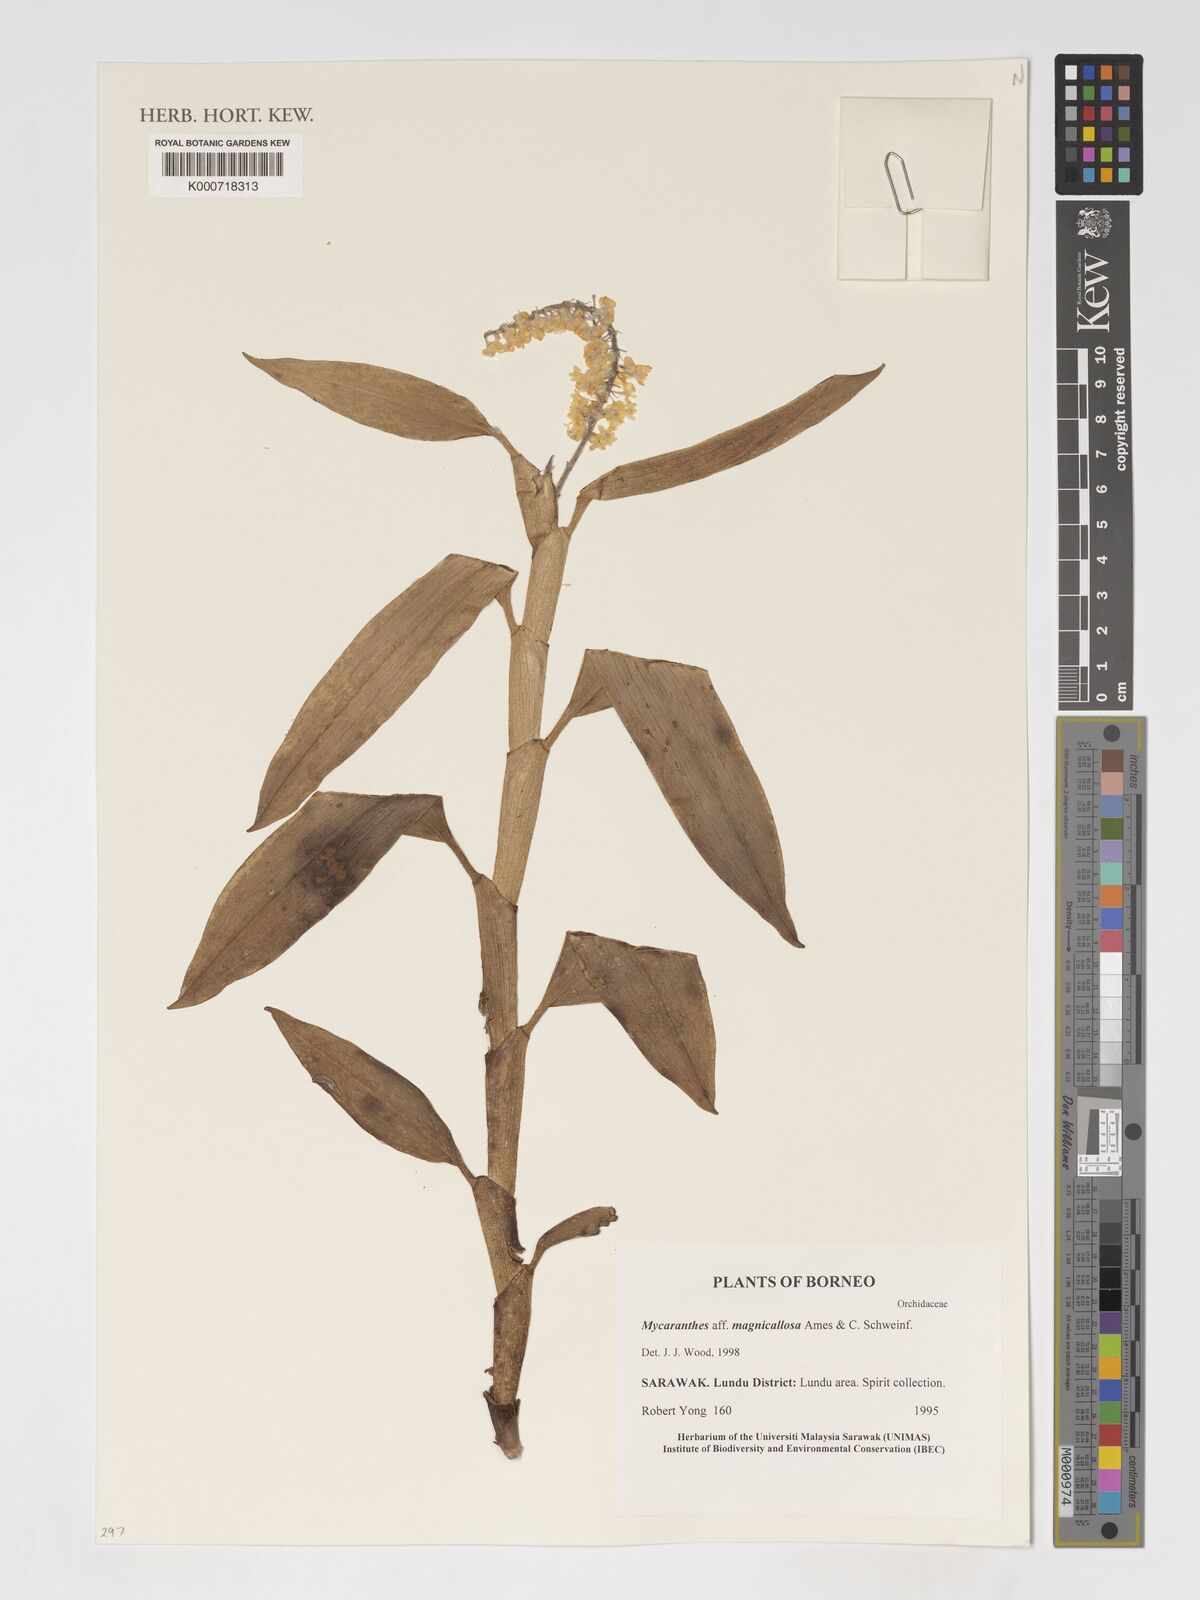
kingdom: Plantae
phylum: Tracheophyta
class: Liliopsida
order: Asparagales
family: Orchidaceae
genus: Mycaranthes
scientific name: Mycaranthes
